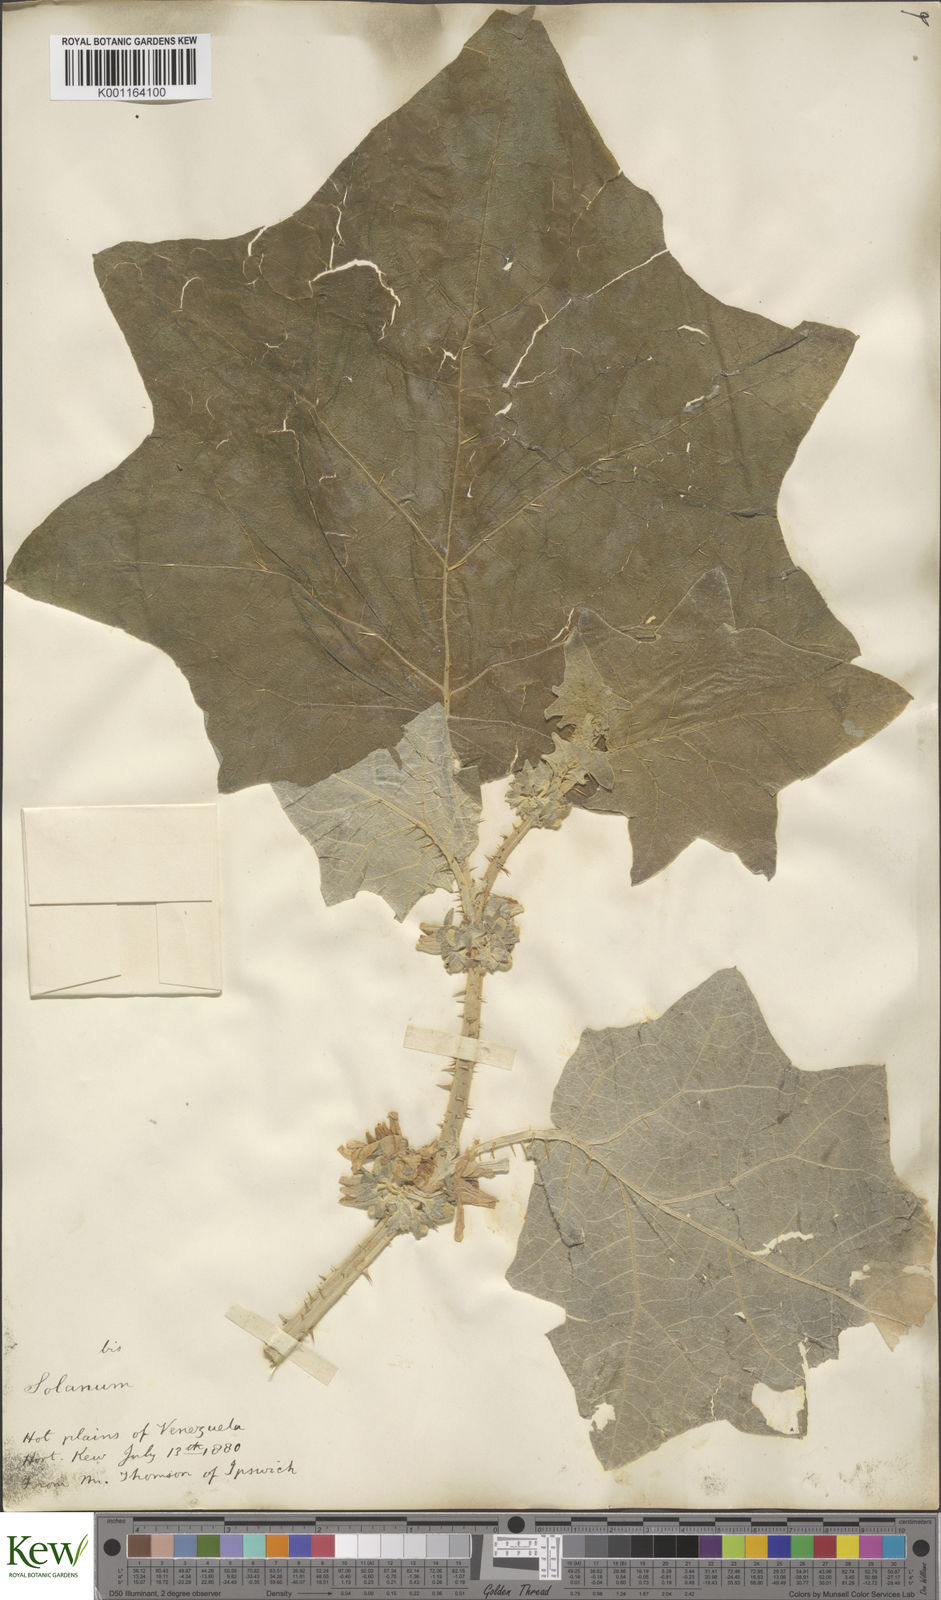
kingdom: Plantae
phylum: Tracheophyta
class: Magnoliopsida
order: Solanales
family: Solanaceae
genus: Solanum
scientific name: Solanum hirtum
